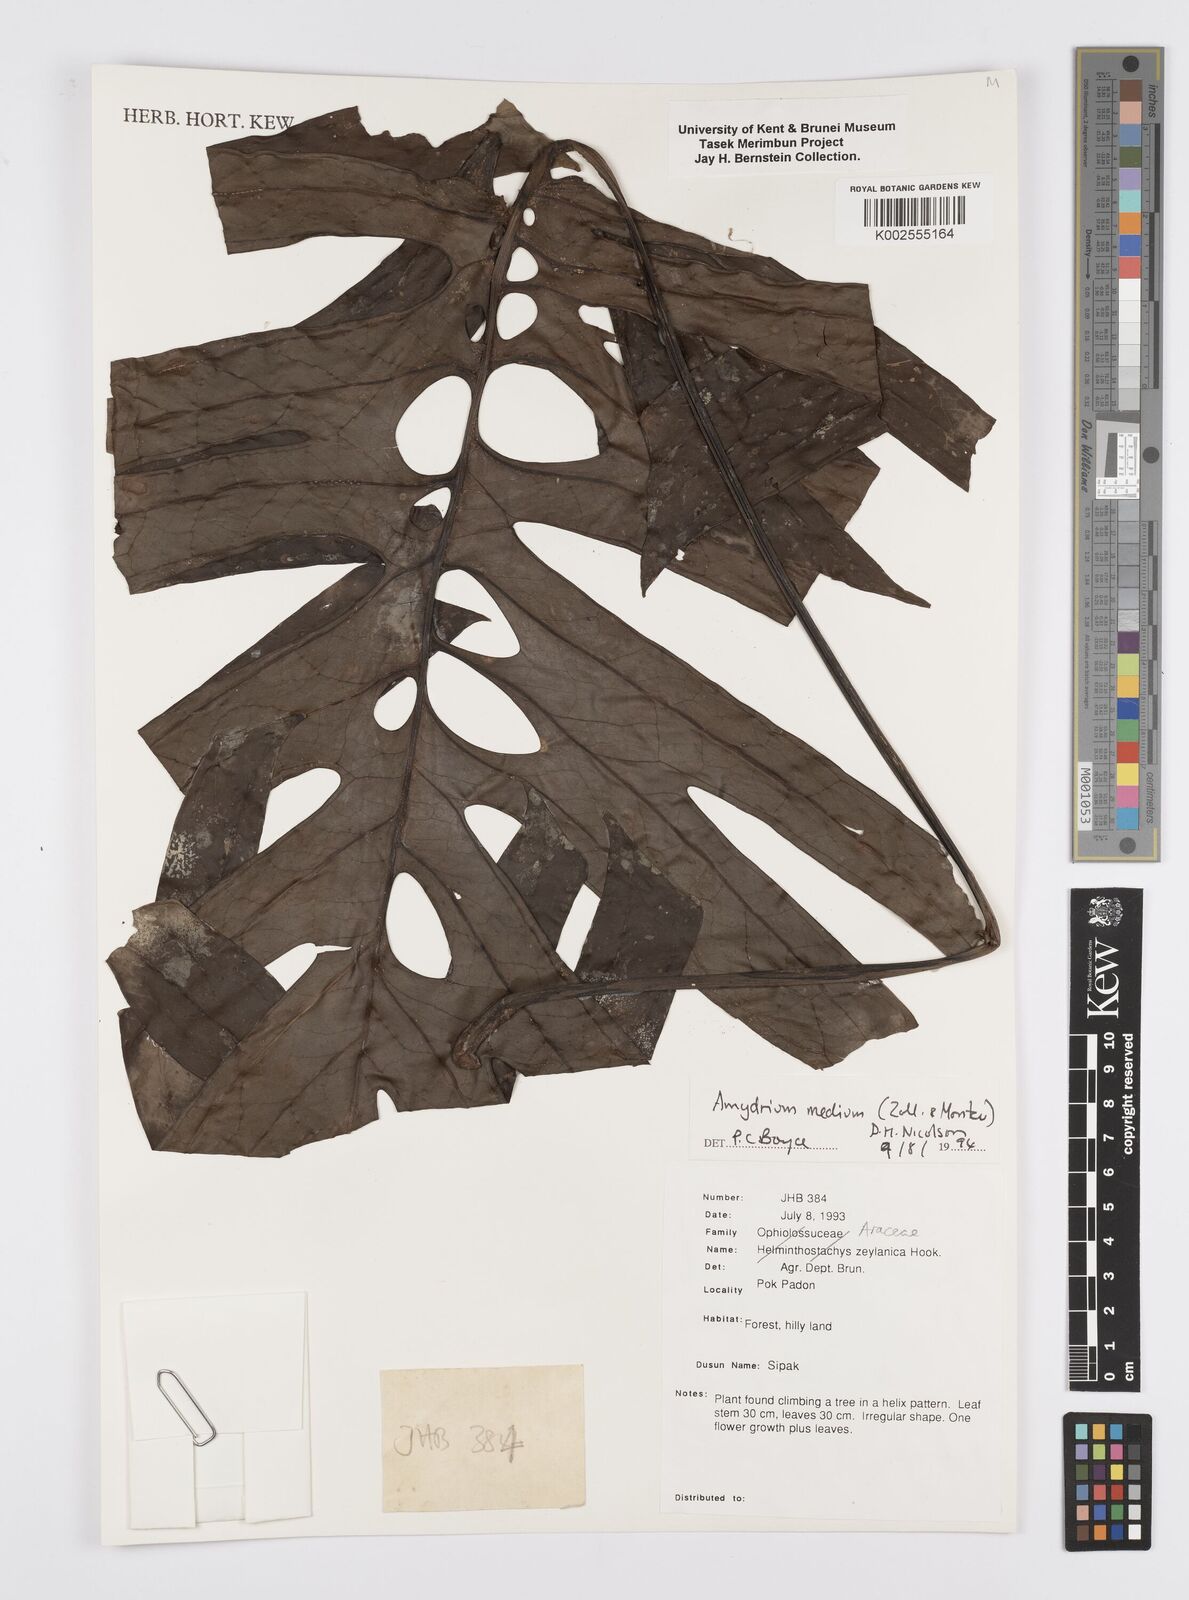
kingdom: Plantae
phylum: Tracheophyta
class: Liliopsida
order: Alismatales
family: Araceae
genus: Amydrium
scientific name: Amydrium medium
